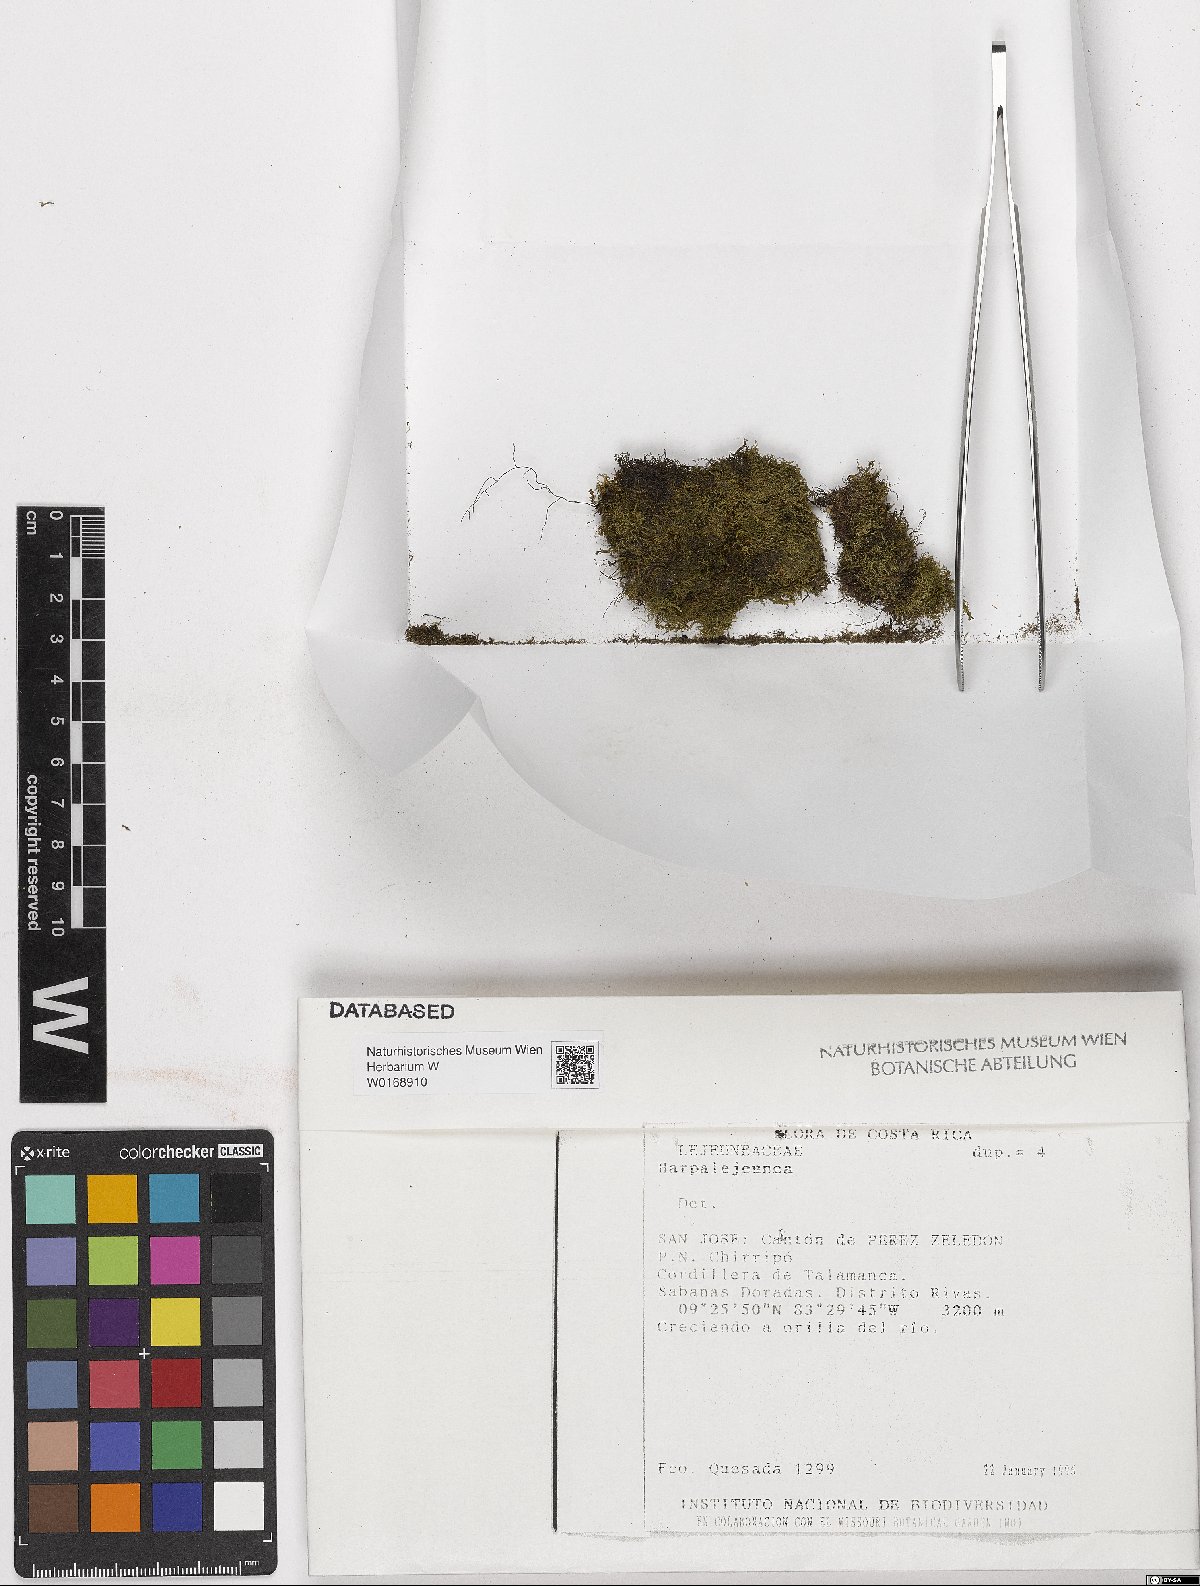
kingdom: Plantae
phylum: Marchantiophyta
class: Jungermanniopsida
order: Porellales
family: Lejeuneaceae
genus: Harpalejeunea
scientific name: Harpalejeunea
